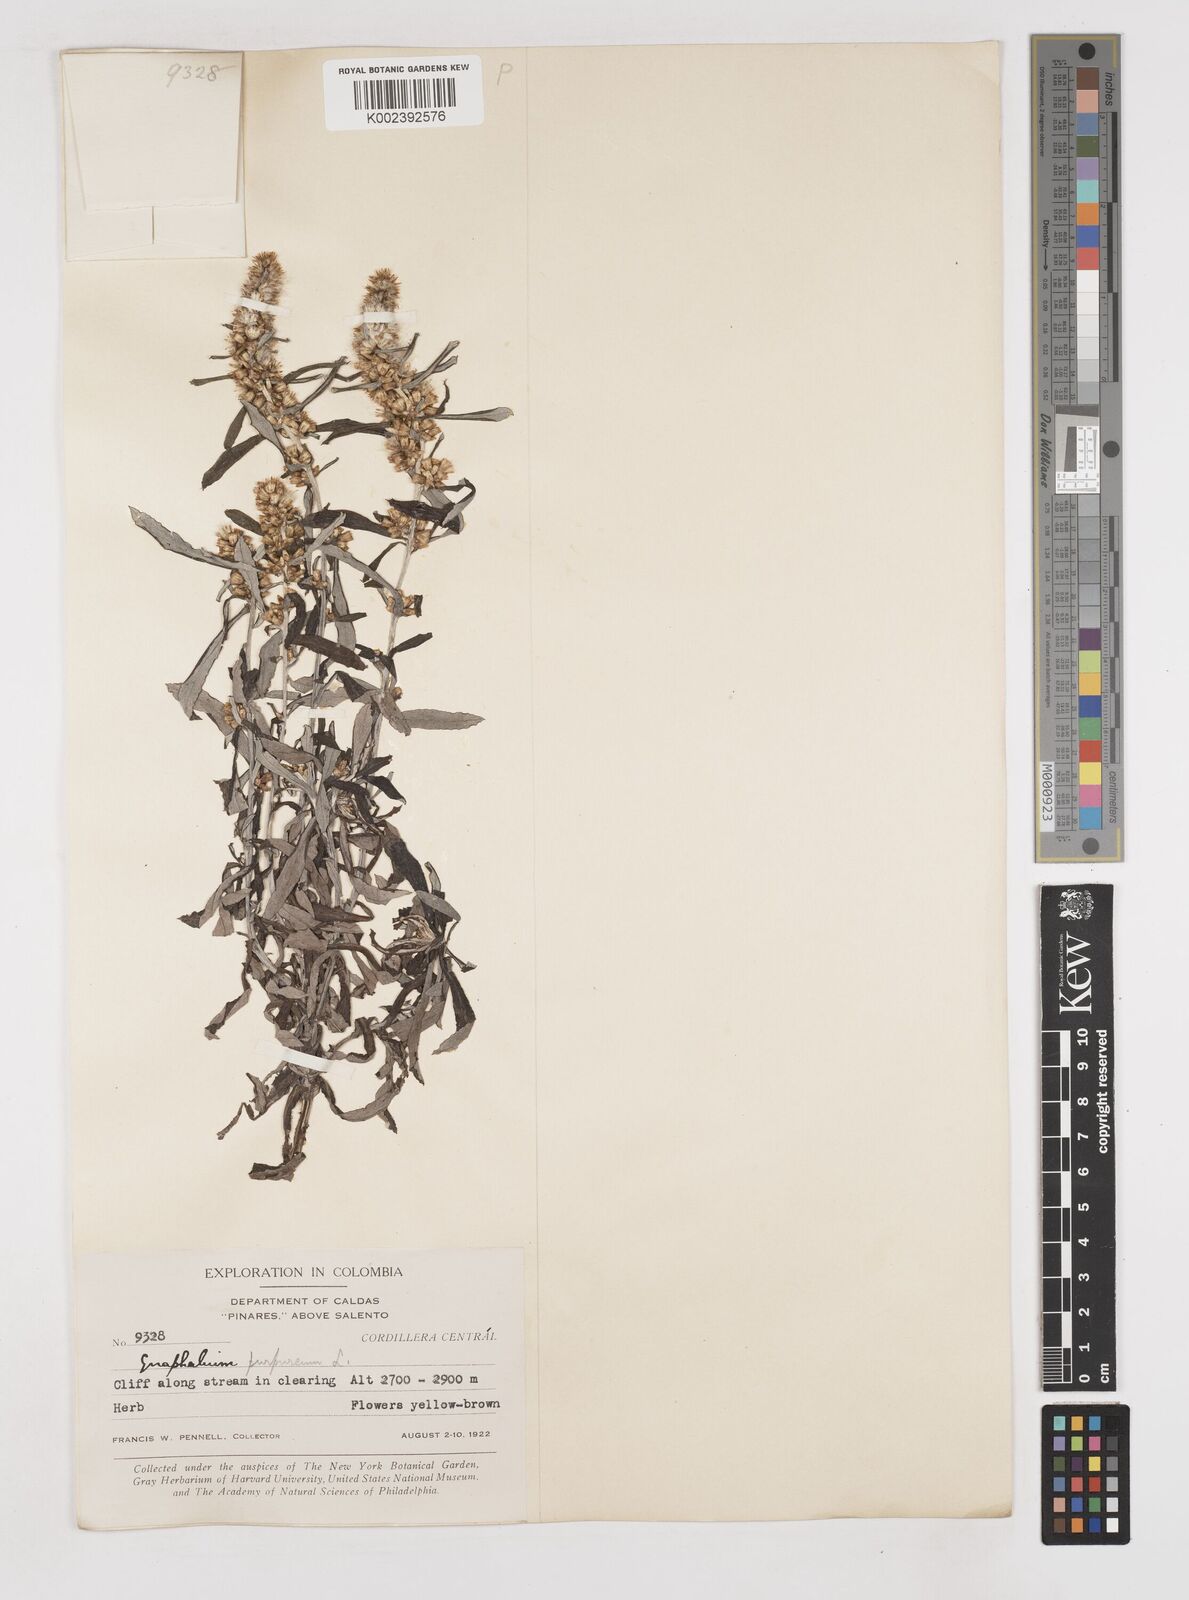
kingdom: Plantae
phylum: Tracheophyta
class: Magnoliopsida
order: Asterales
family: Asteraceae
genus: Pseudognaphalium
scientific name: Pseudognaphalium purpurascens
